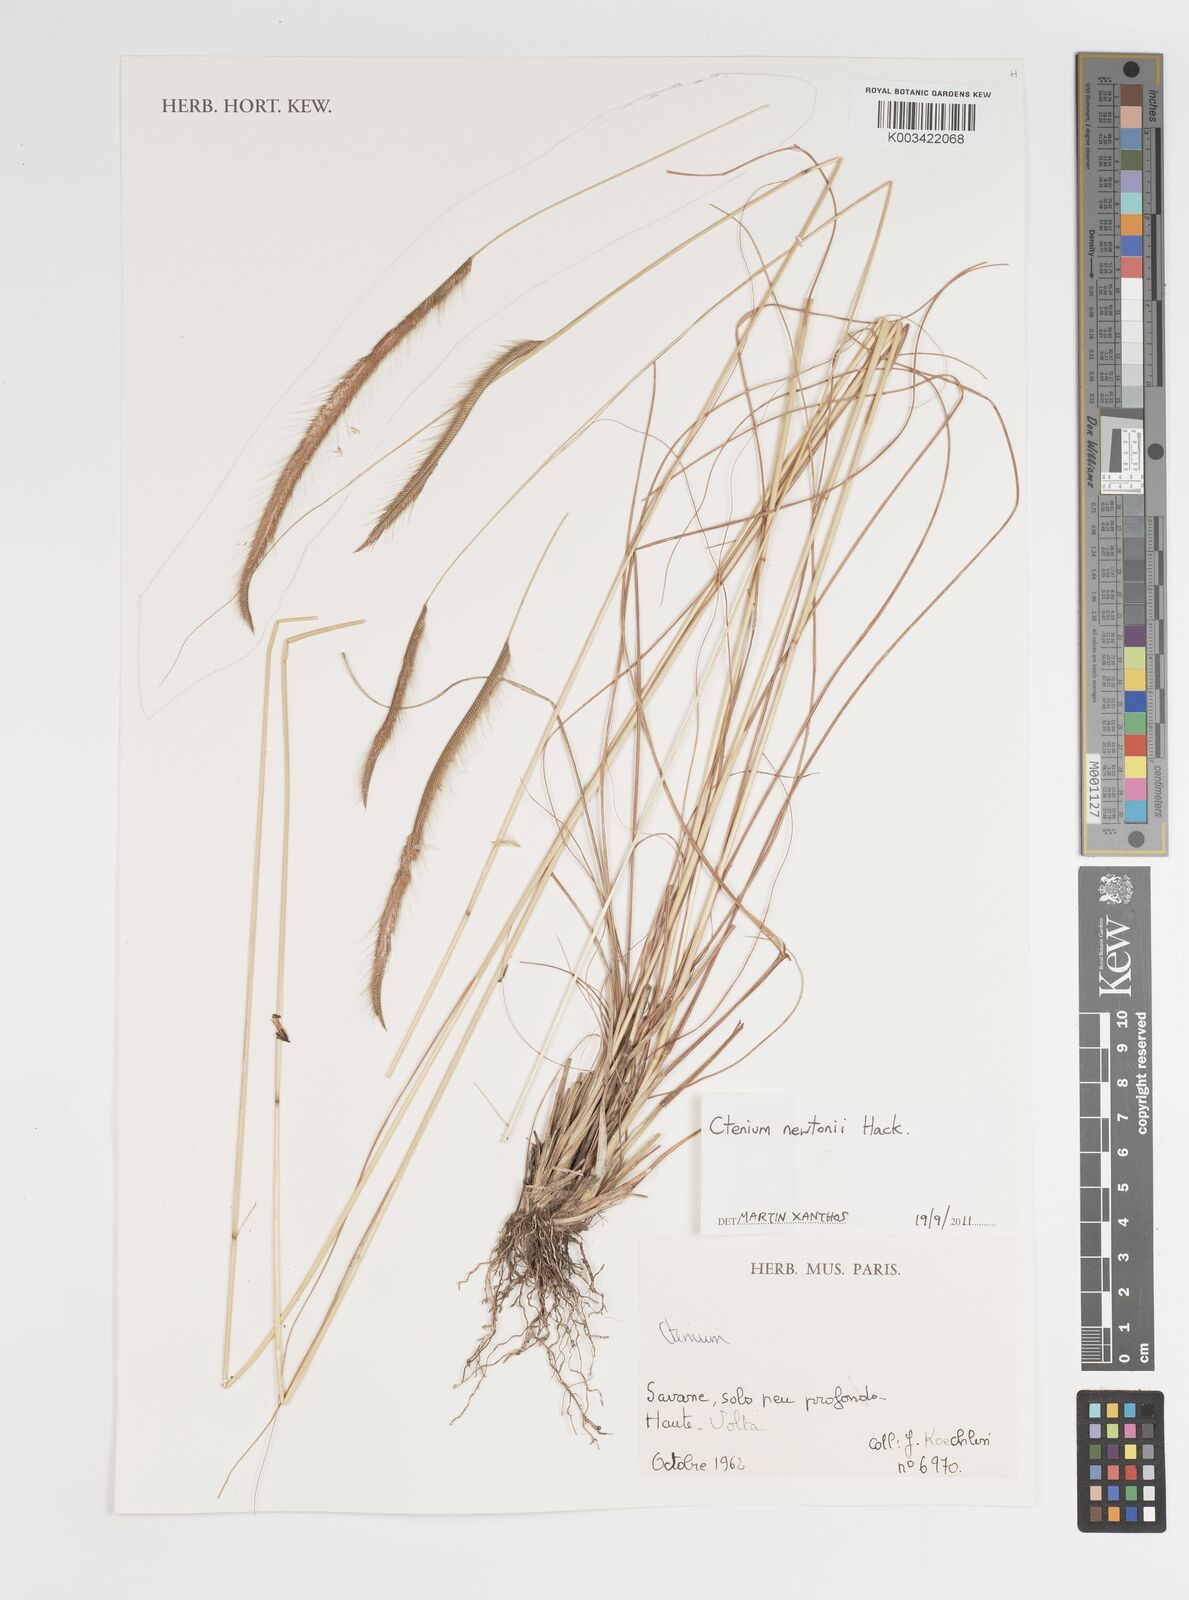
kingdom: Plantae
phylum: Tracheophyta
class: Liliopsida
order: Poales
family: Poaceae
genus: Ctenium
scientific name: Ctenium newtonii
